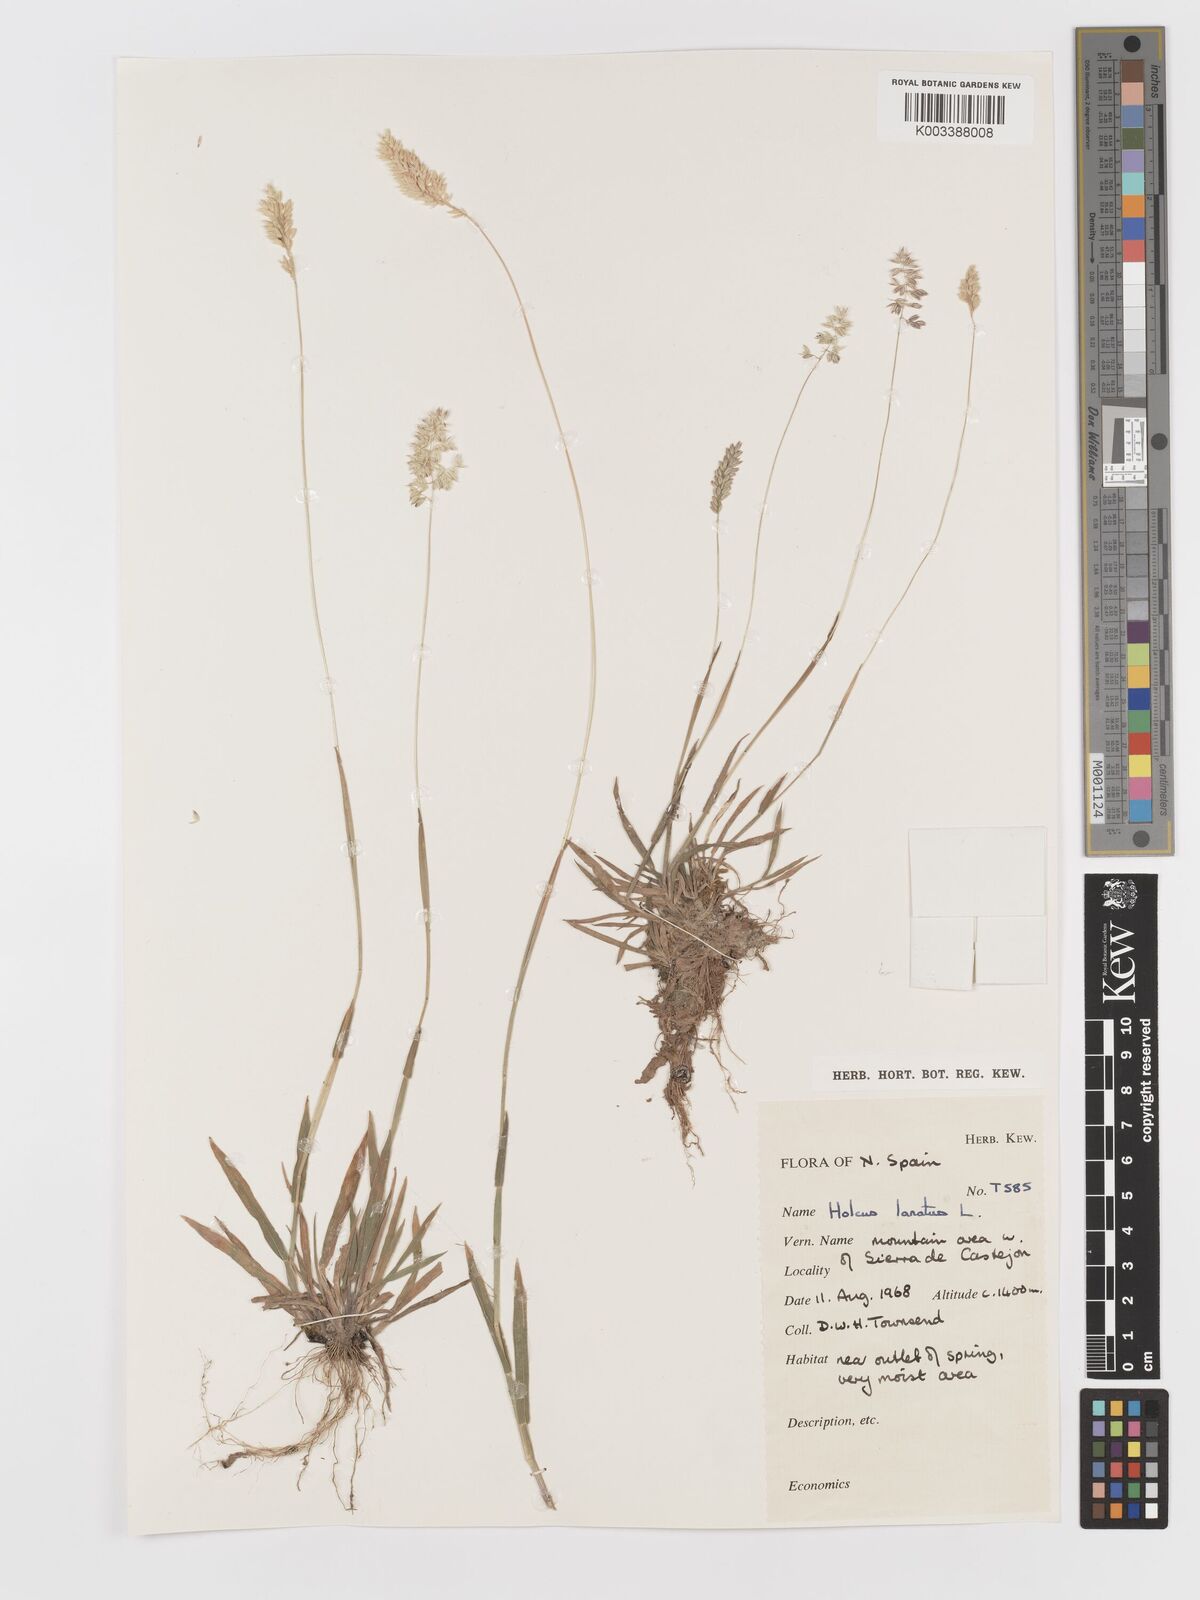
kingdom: Plantae
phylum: Tracheophyta
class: Liliopsida
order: Poales
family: Poaceae
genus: Holcus
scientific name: Holcus lanatus
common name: Yorkshire-fog
